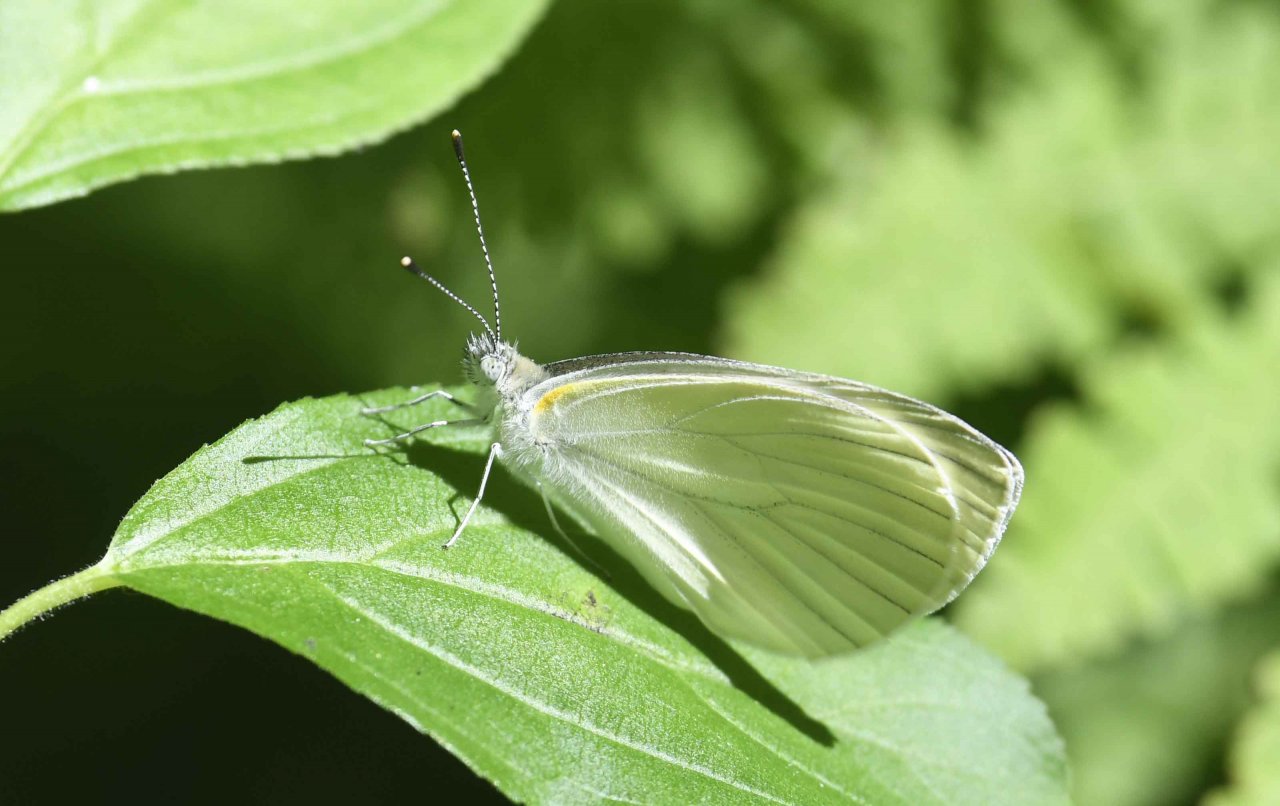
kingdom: Animalia
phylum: Arthropoda
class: Insecta
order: Lepidoptera
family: Pieridae
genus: Pieris
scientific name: Pieris oleracea
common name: Mustard White
